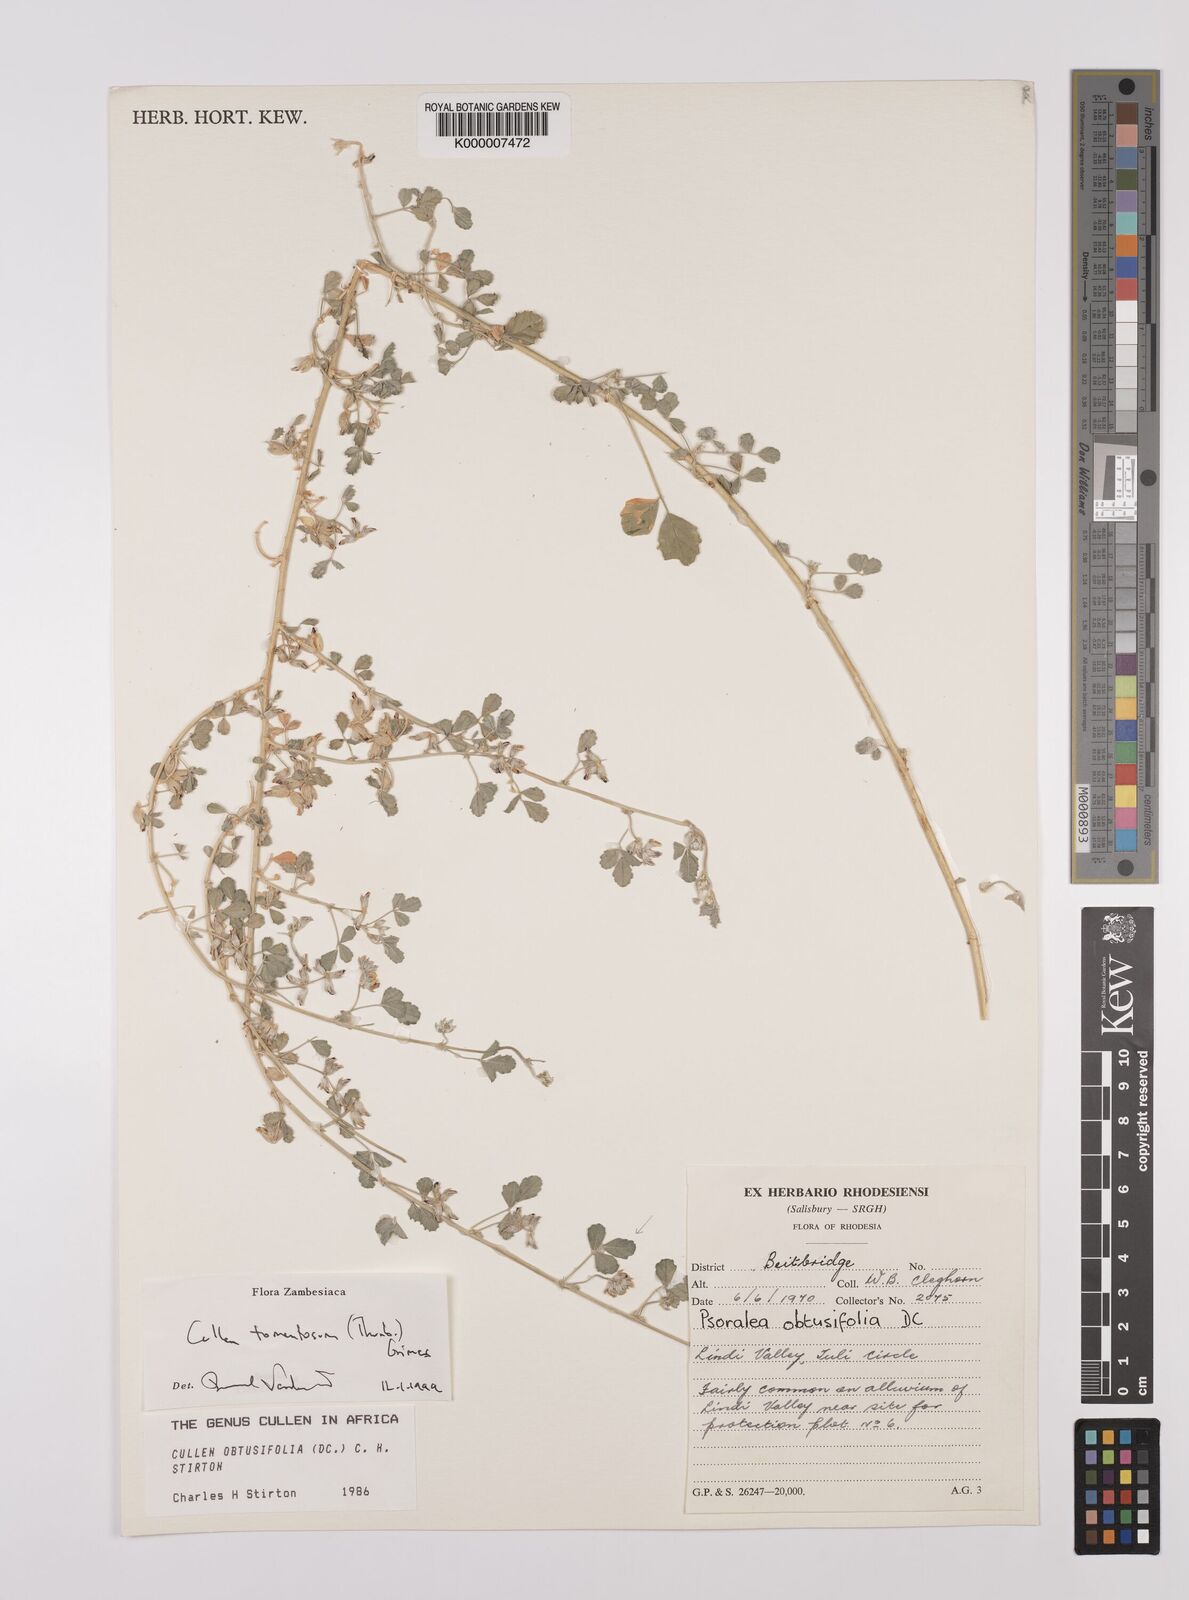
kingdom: Plantae
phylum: Tracheophyta
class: Magnoliopsida
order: Fabales
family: Fabaceae
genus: Cullen
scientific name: Cullen tomentosum
